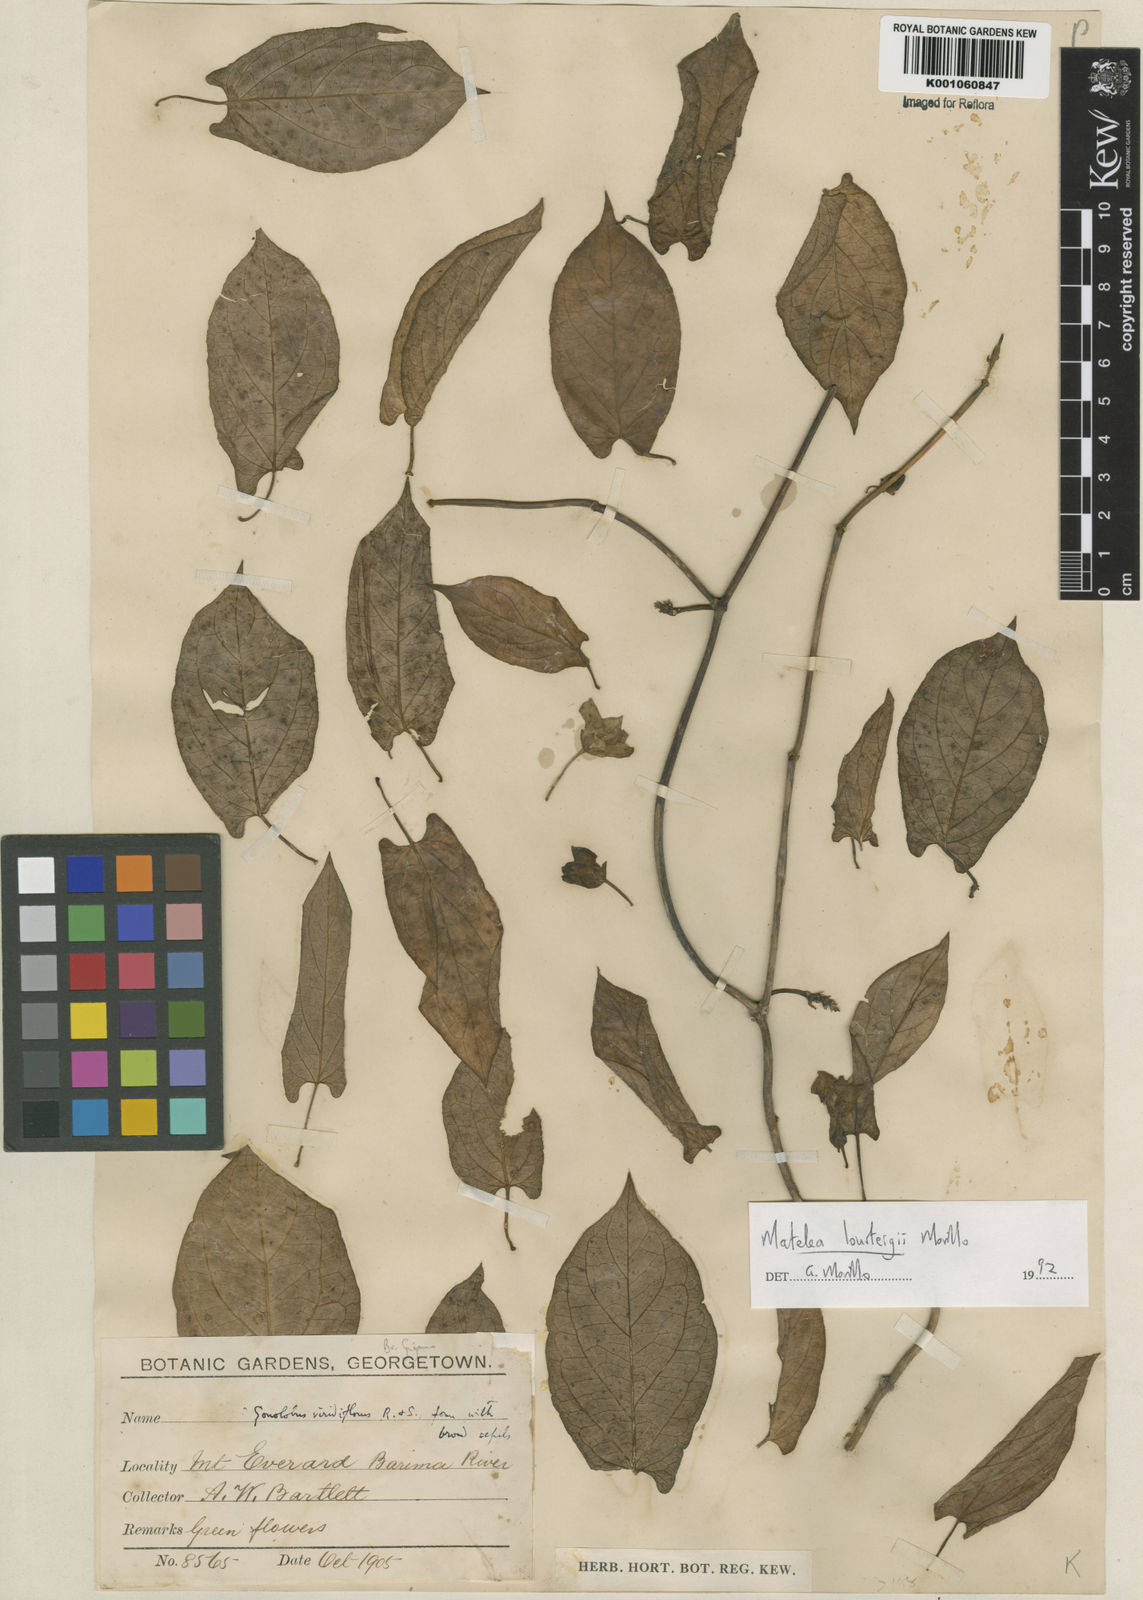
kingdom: Plantae
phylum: Tracheophyta
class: Magnoliopsida
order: Gentianales
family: Apocynaceae
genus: Chloropetalum
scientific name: Chloropetalum surinamense
